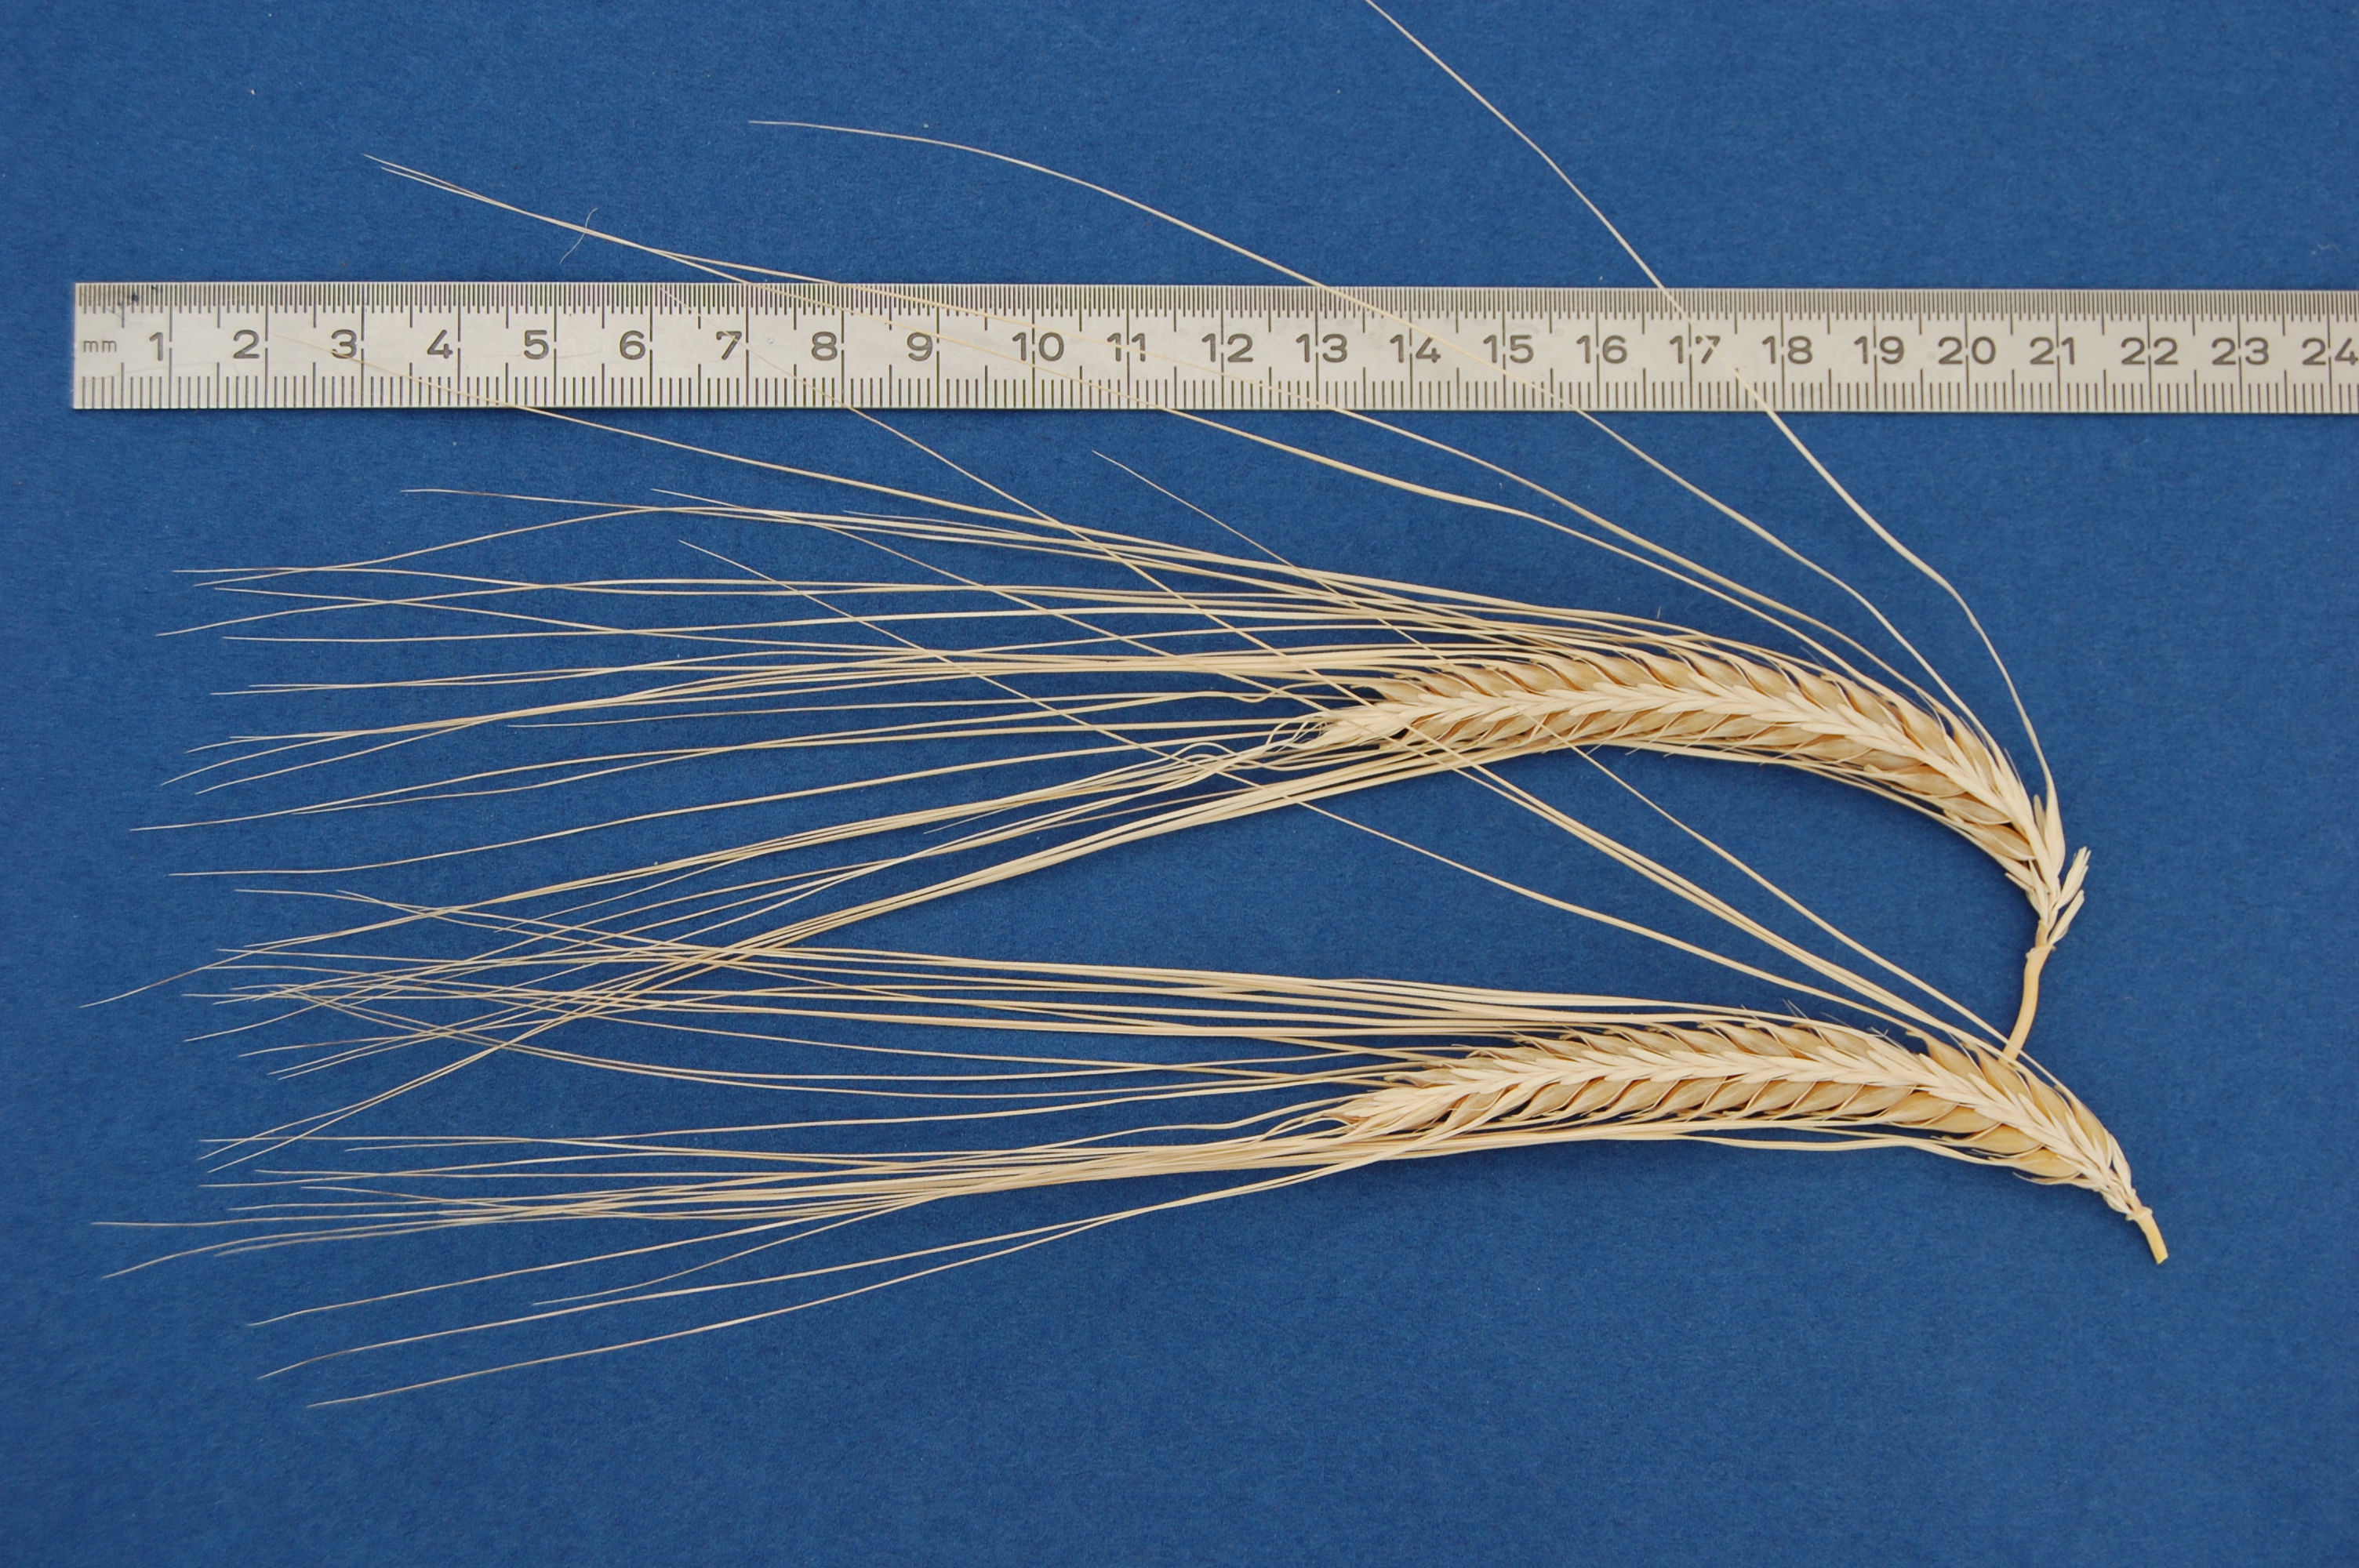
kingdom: Plantae
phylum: Tracheophyta
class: Liliopsida
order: Poales
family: Poaceae
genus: Hordeum
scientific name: Hordeum vulgare
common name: Common barley
